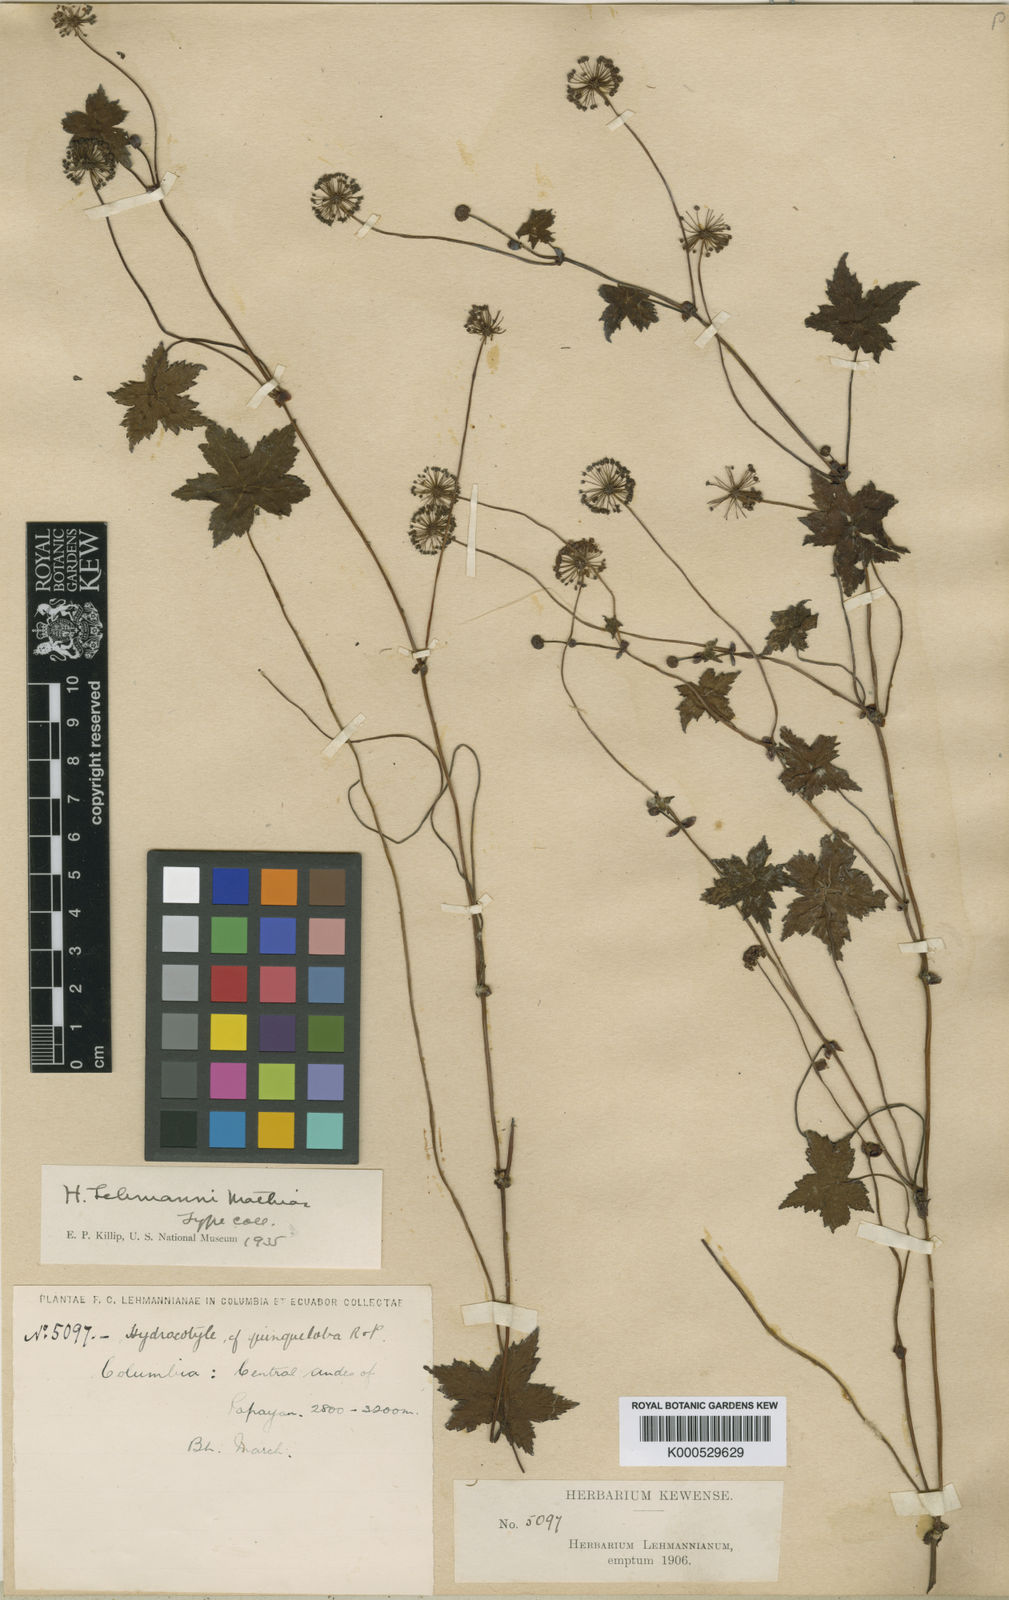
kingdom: Plantae
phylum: Tracheophyta
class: Magnoliopsida
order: Apiales
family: Araliaceae
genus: Hydrocotyle
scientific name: Hydrocotyle lehmannii
